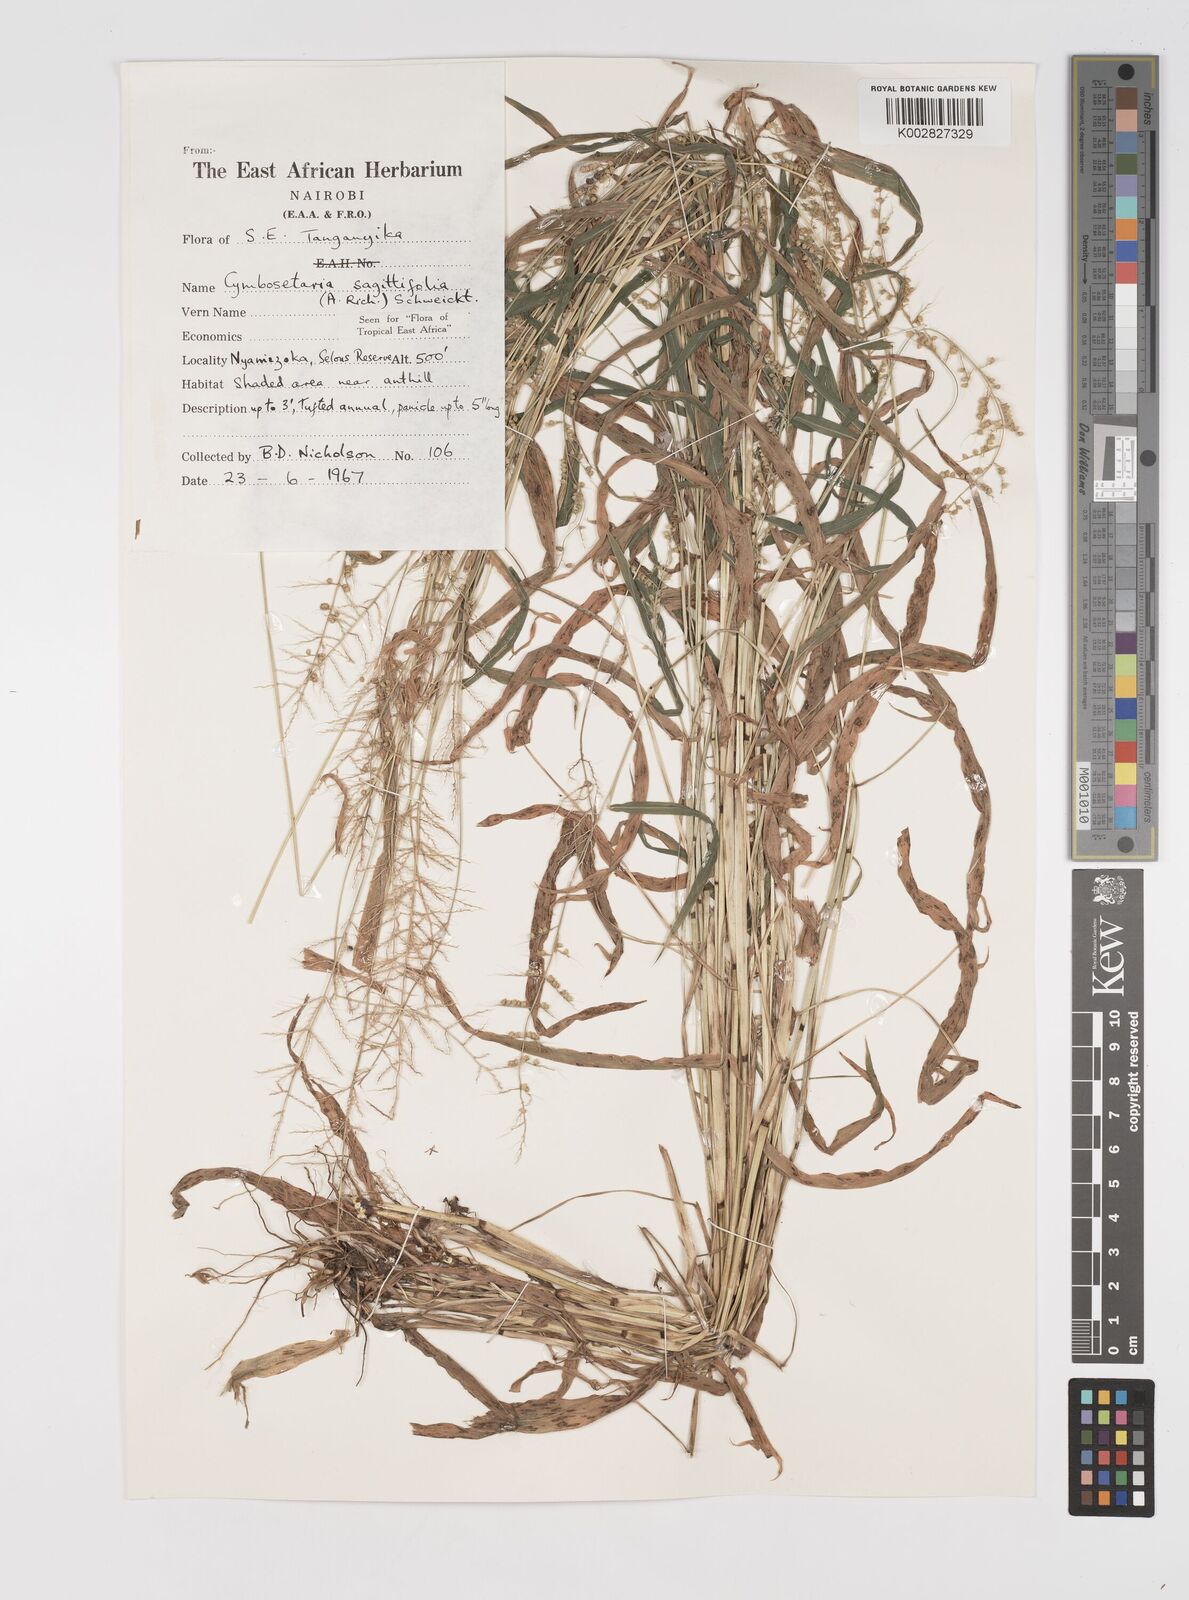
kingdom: Plantae
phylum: Tracheophyta
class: Liliopsida
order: Poales
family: Poaceae
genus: Setaria
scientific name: Setaria sagittifolia
